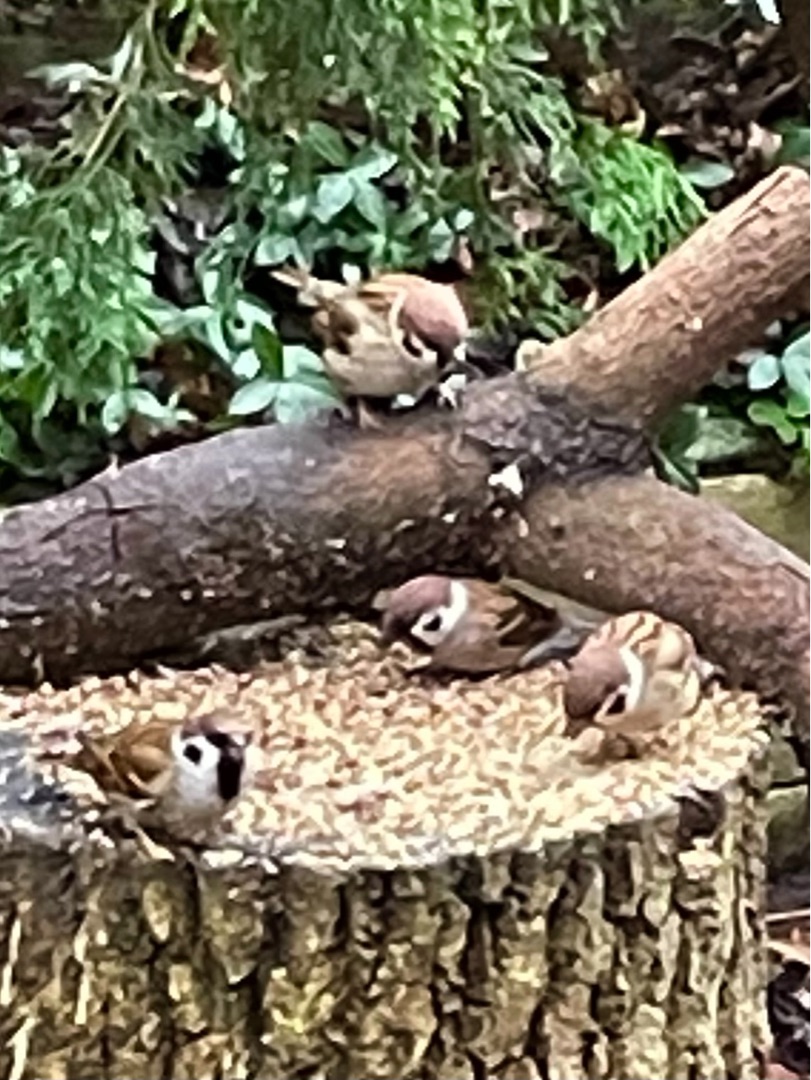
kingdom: Animalia
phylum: Chordata
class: Aves
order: Passeriformes
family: Passeridae
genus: Passer
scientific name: Passer montanus
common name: Skovspurv
